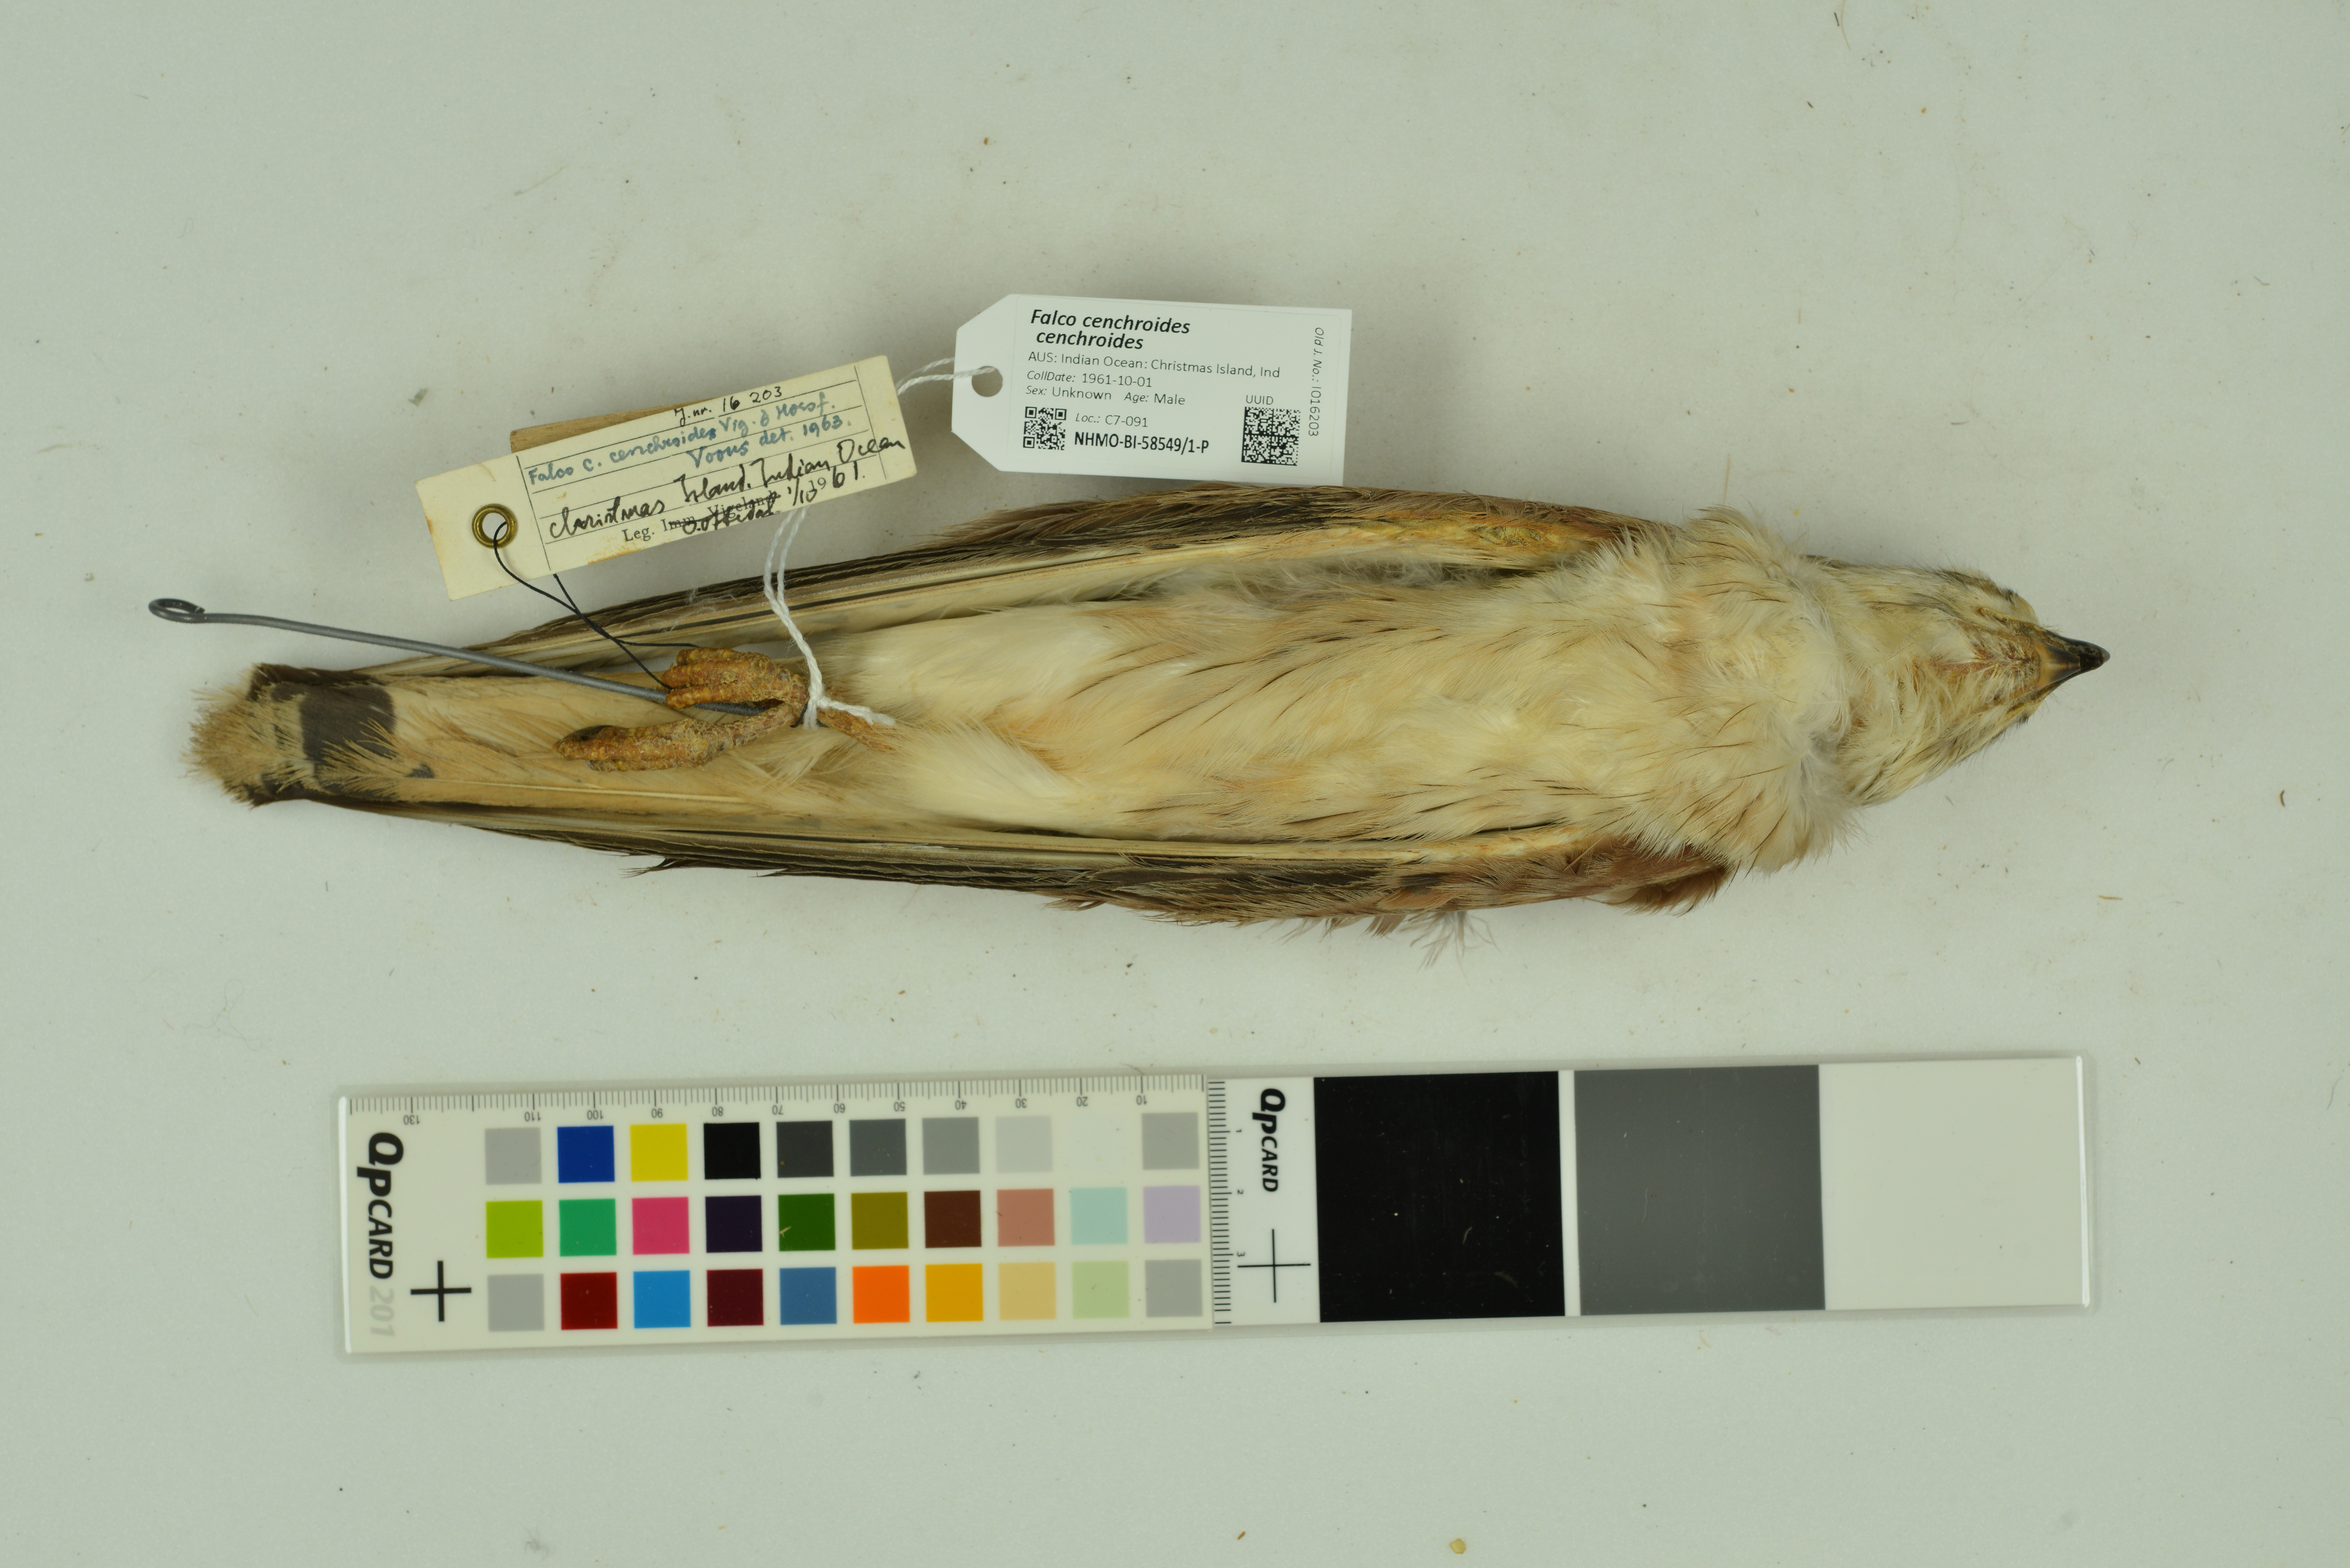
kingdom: Animalia
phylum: Chordata
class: Aves
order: Falconiformes
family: Falconidae
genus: Falco
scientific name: Falco cenchroides
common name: Nankeen kestrel
